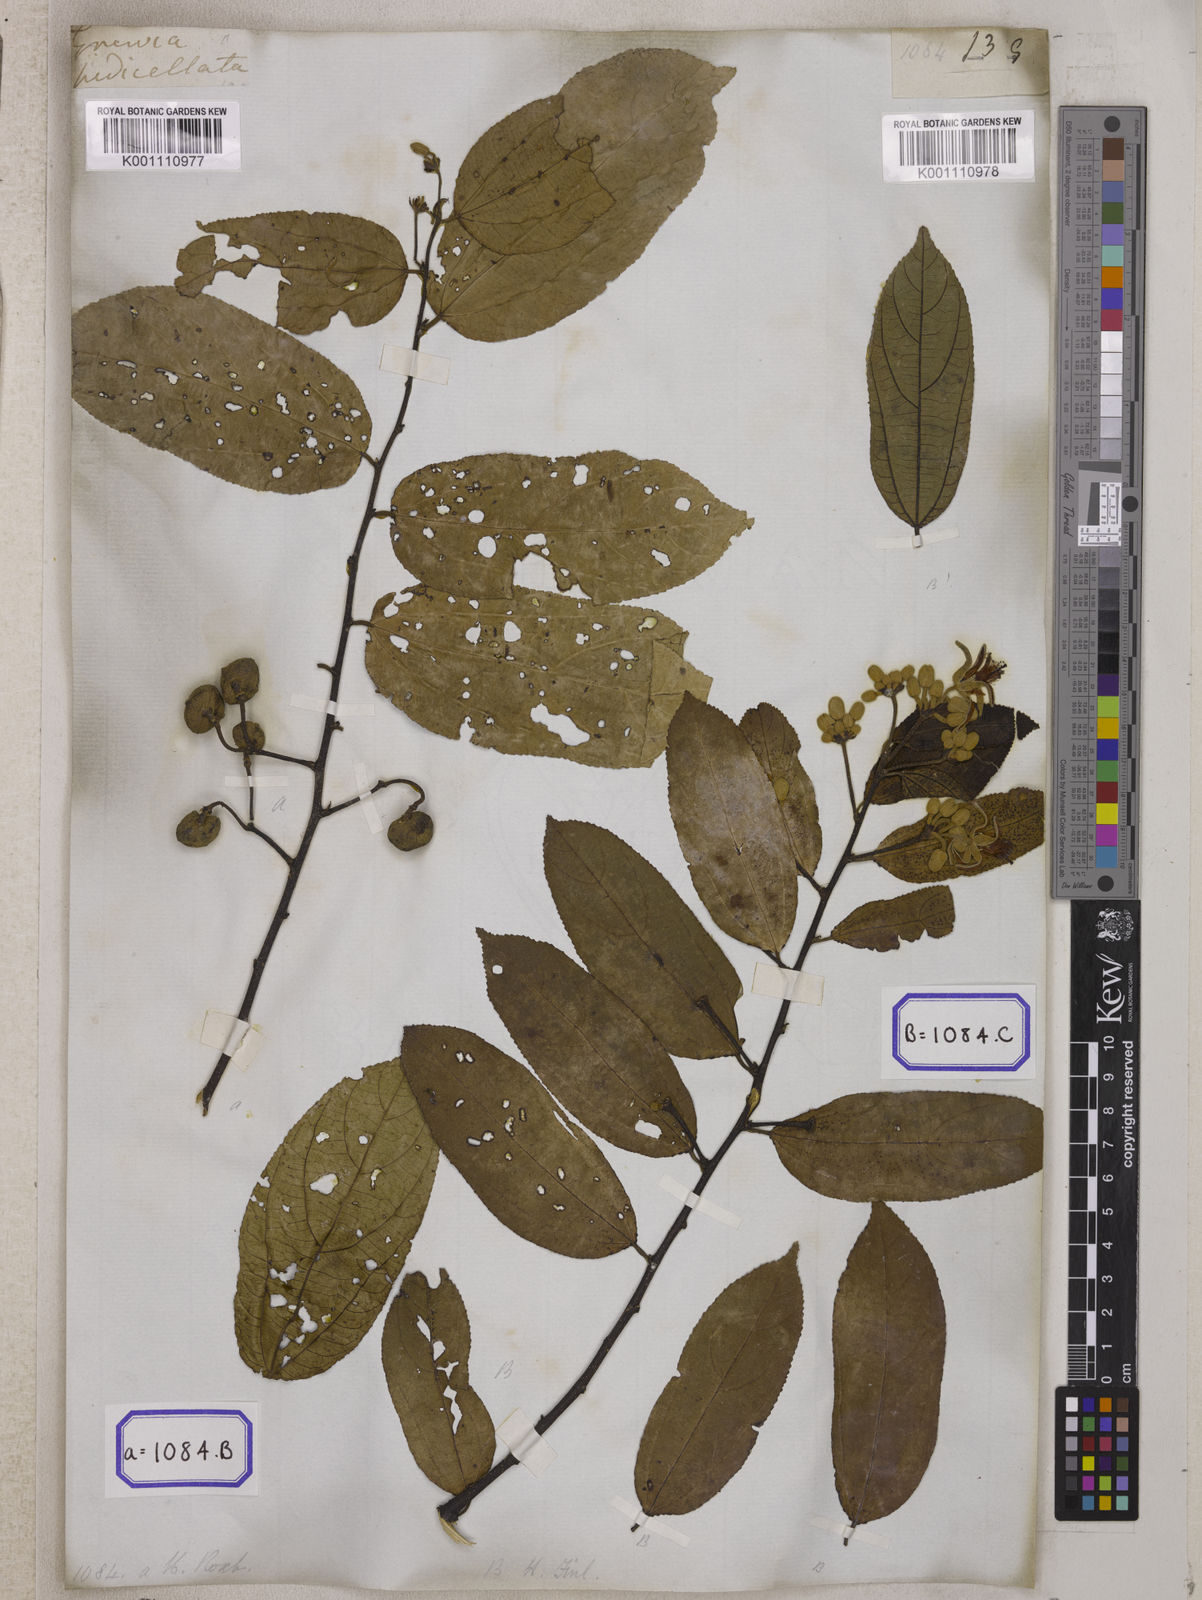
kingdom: Plantae
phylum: Tracheophyta
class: Magnoliopsida
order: Malvales
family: Malvaceae
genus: Grewia
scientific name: Grewia
